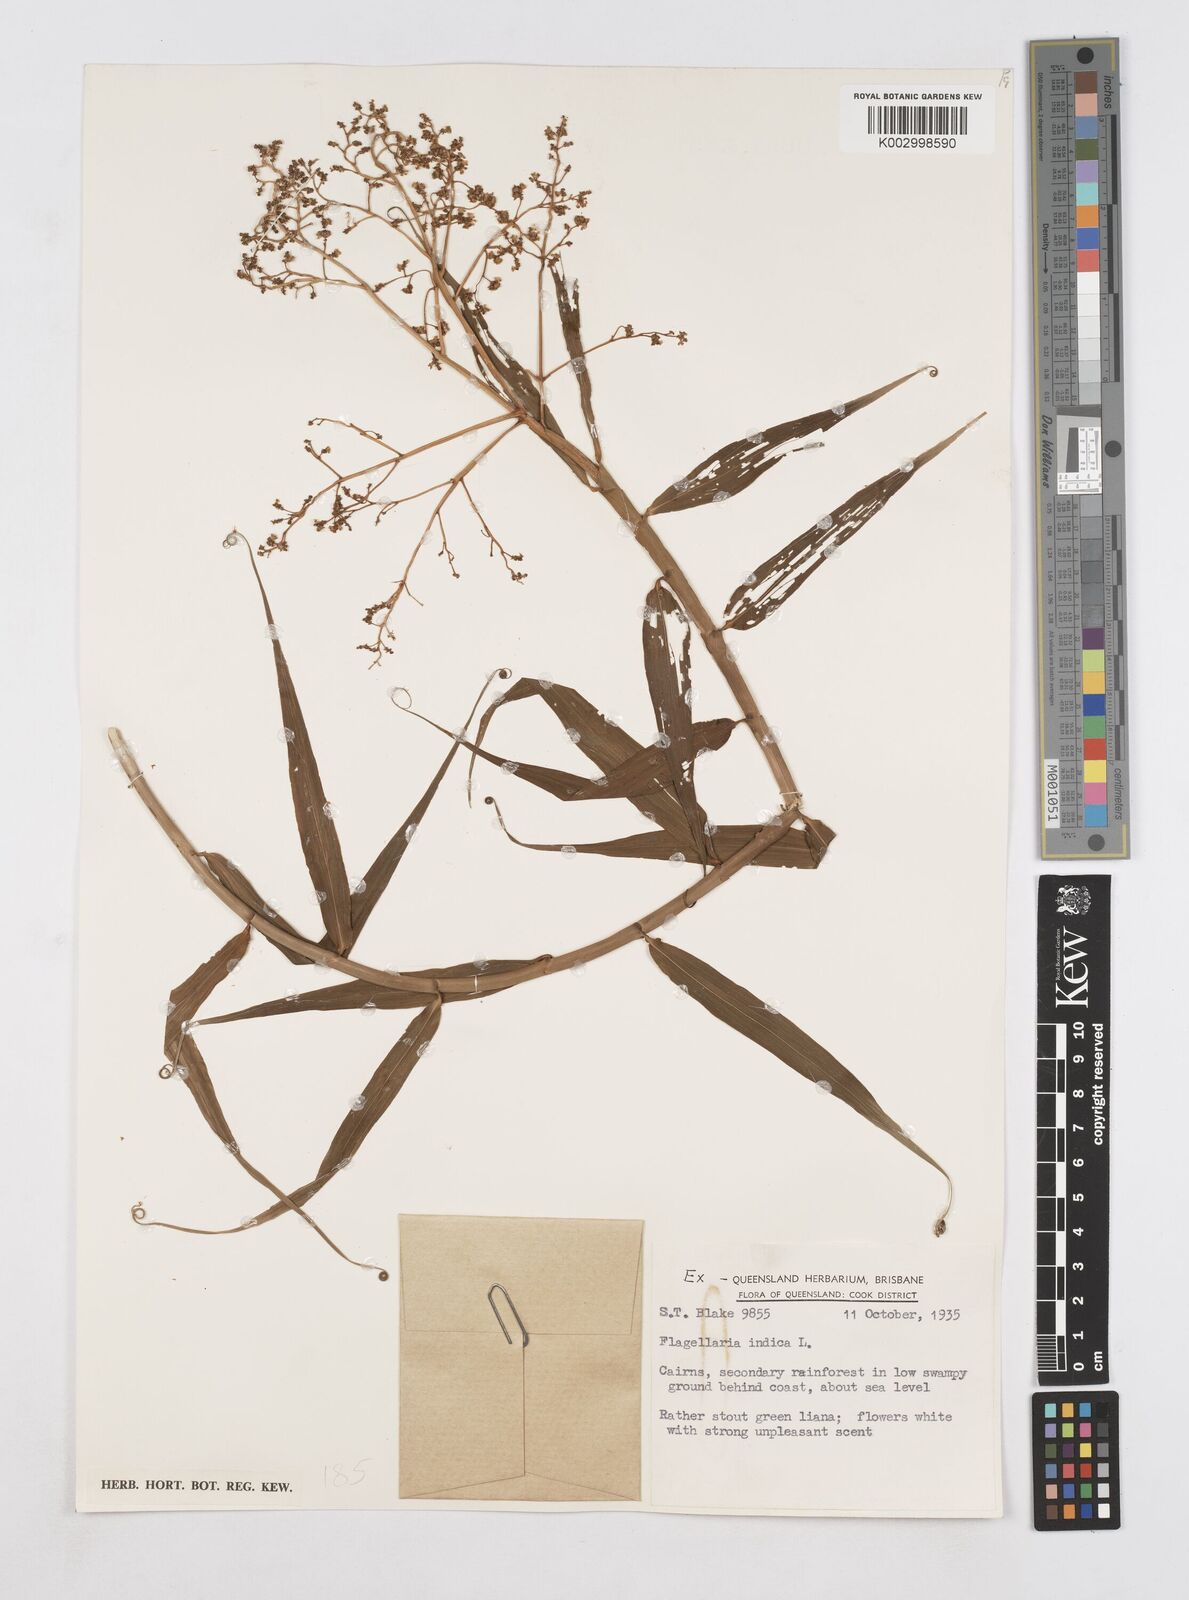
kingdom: Plantae
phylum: Tracheophyta
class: Liliopsida
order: Poales
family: Flagellariaceae
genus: Flagellaria
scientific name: Flagellaria indica
